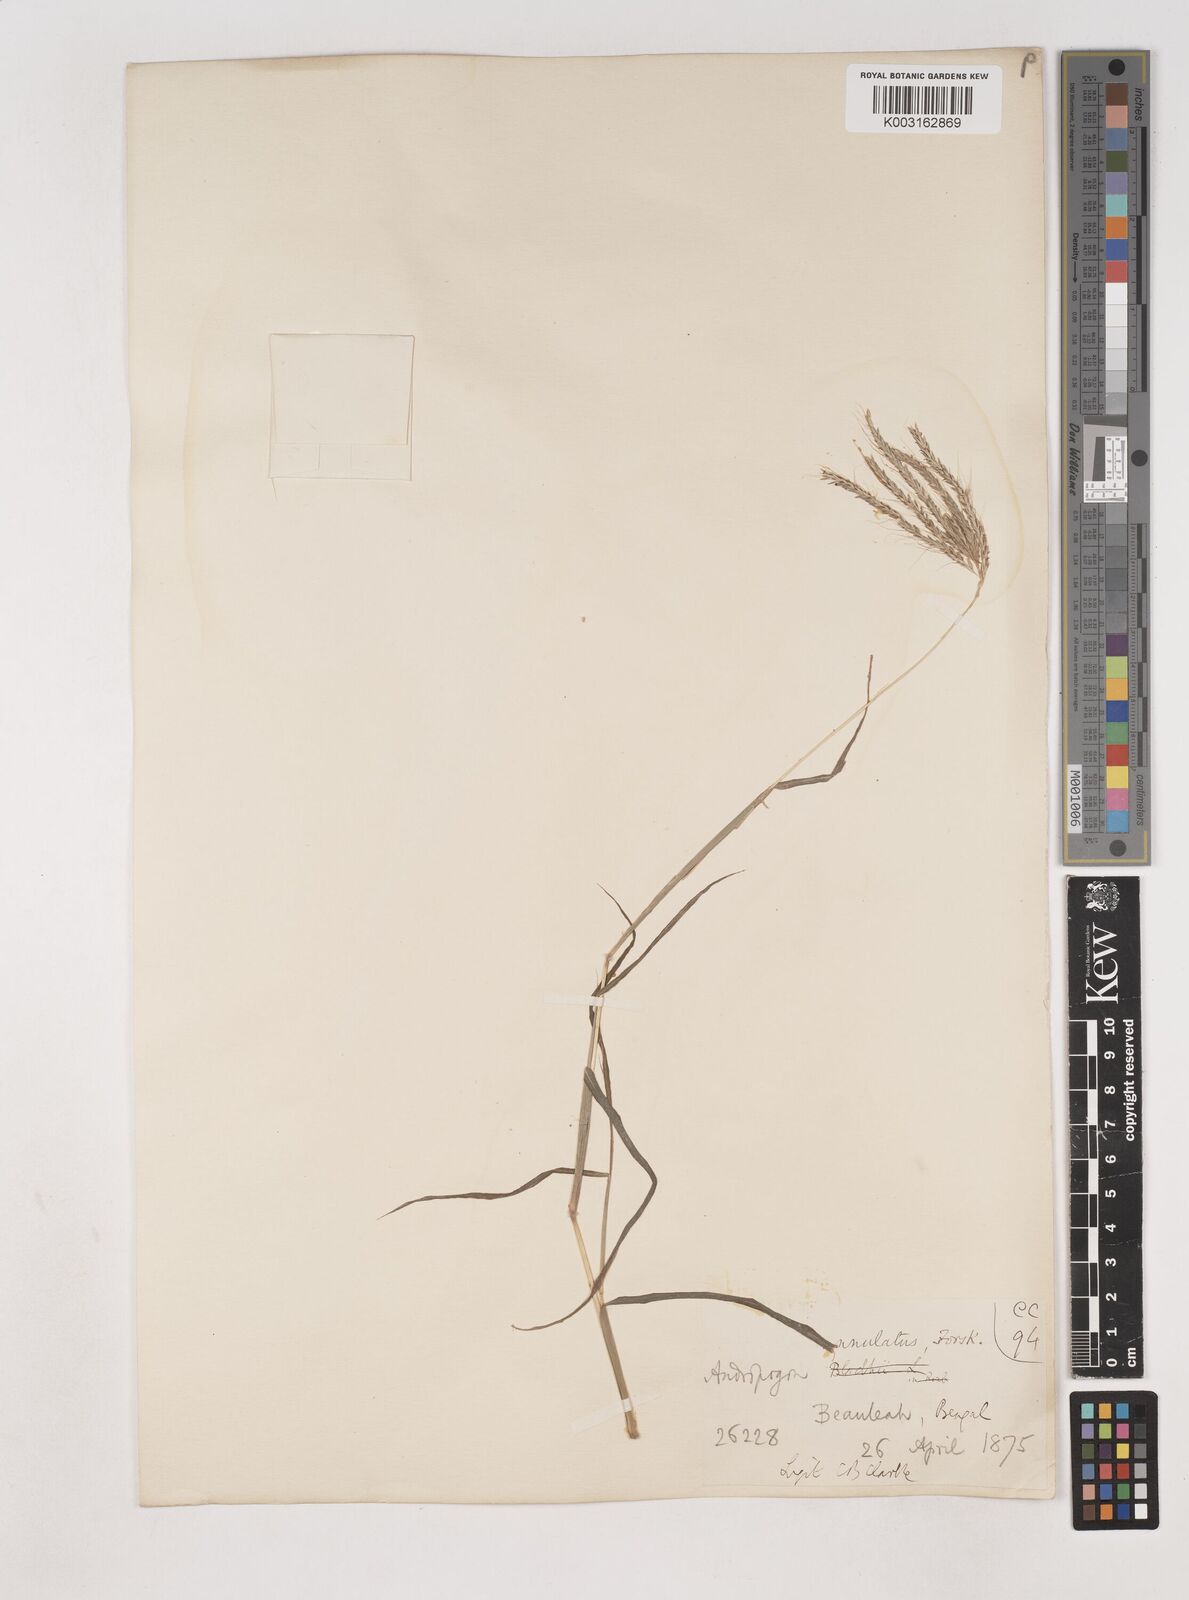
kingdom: Plantae
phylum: Tracheophyta
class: Liliopsida
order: Poales
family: Poaceae
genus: Dichanthium
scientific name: Dichanthium annulatum
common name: Kleberg's bluestem
